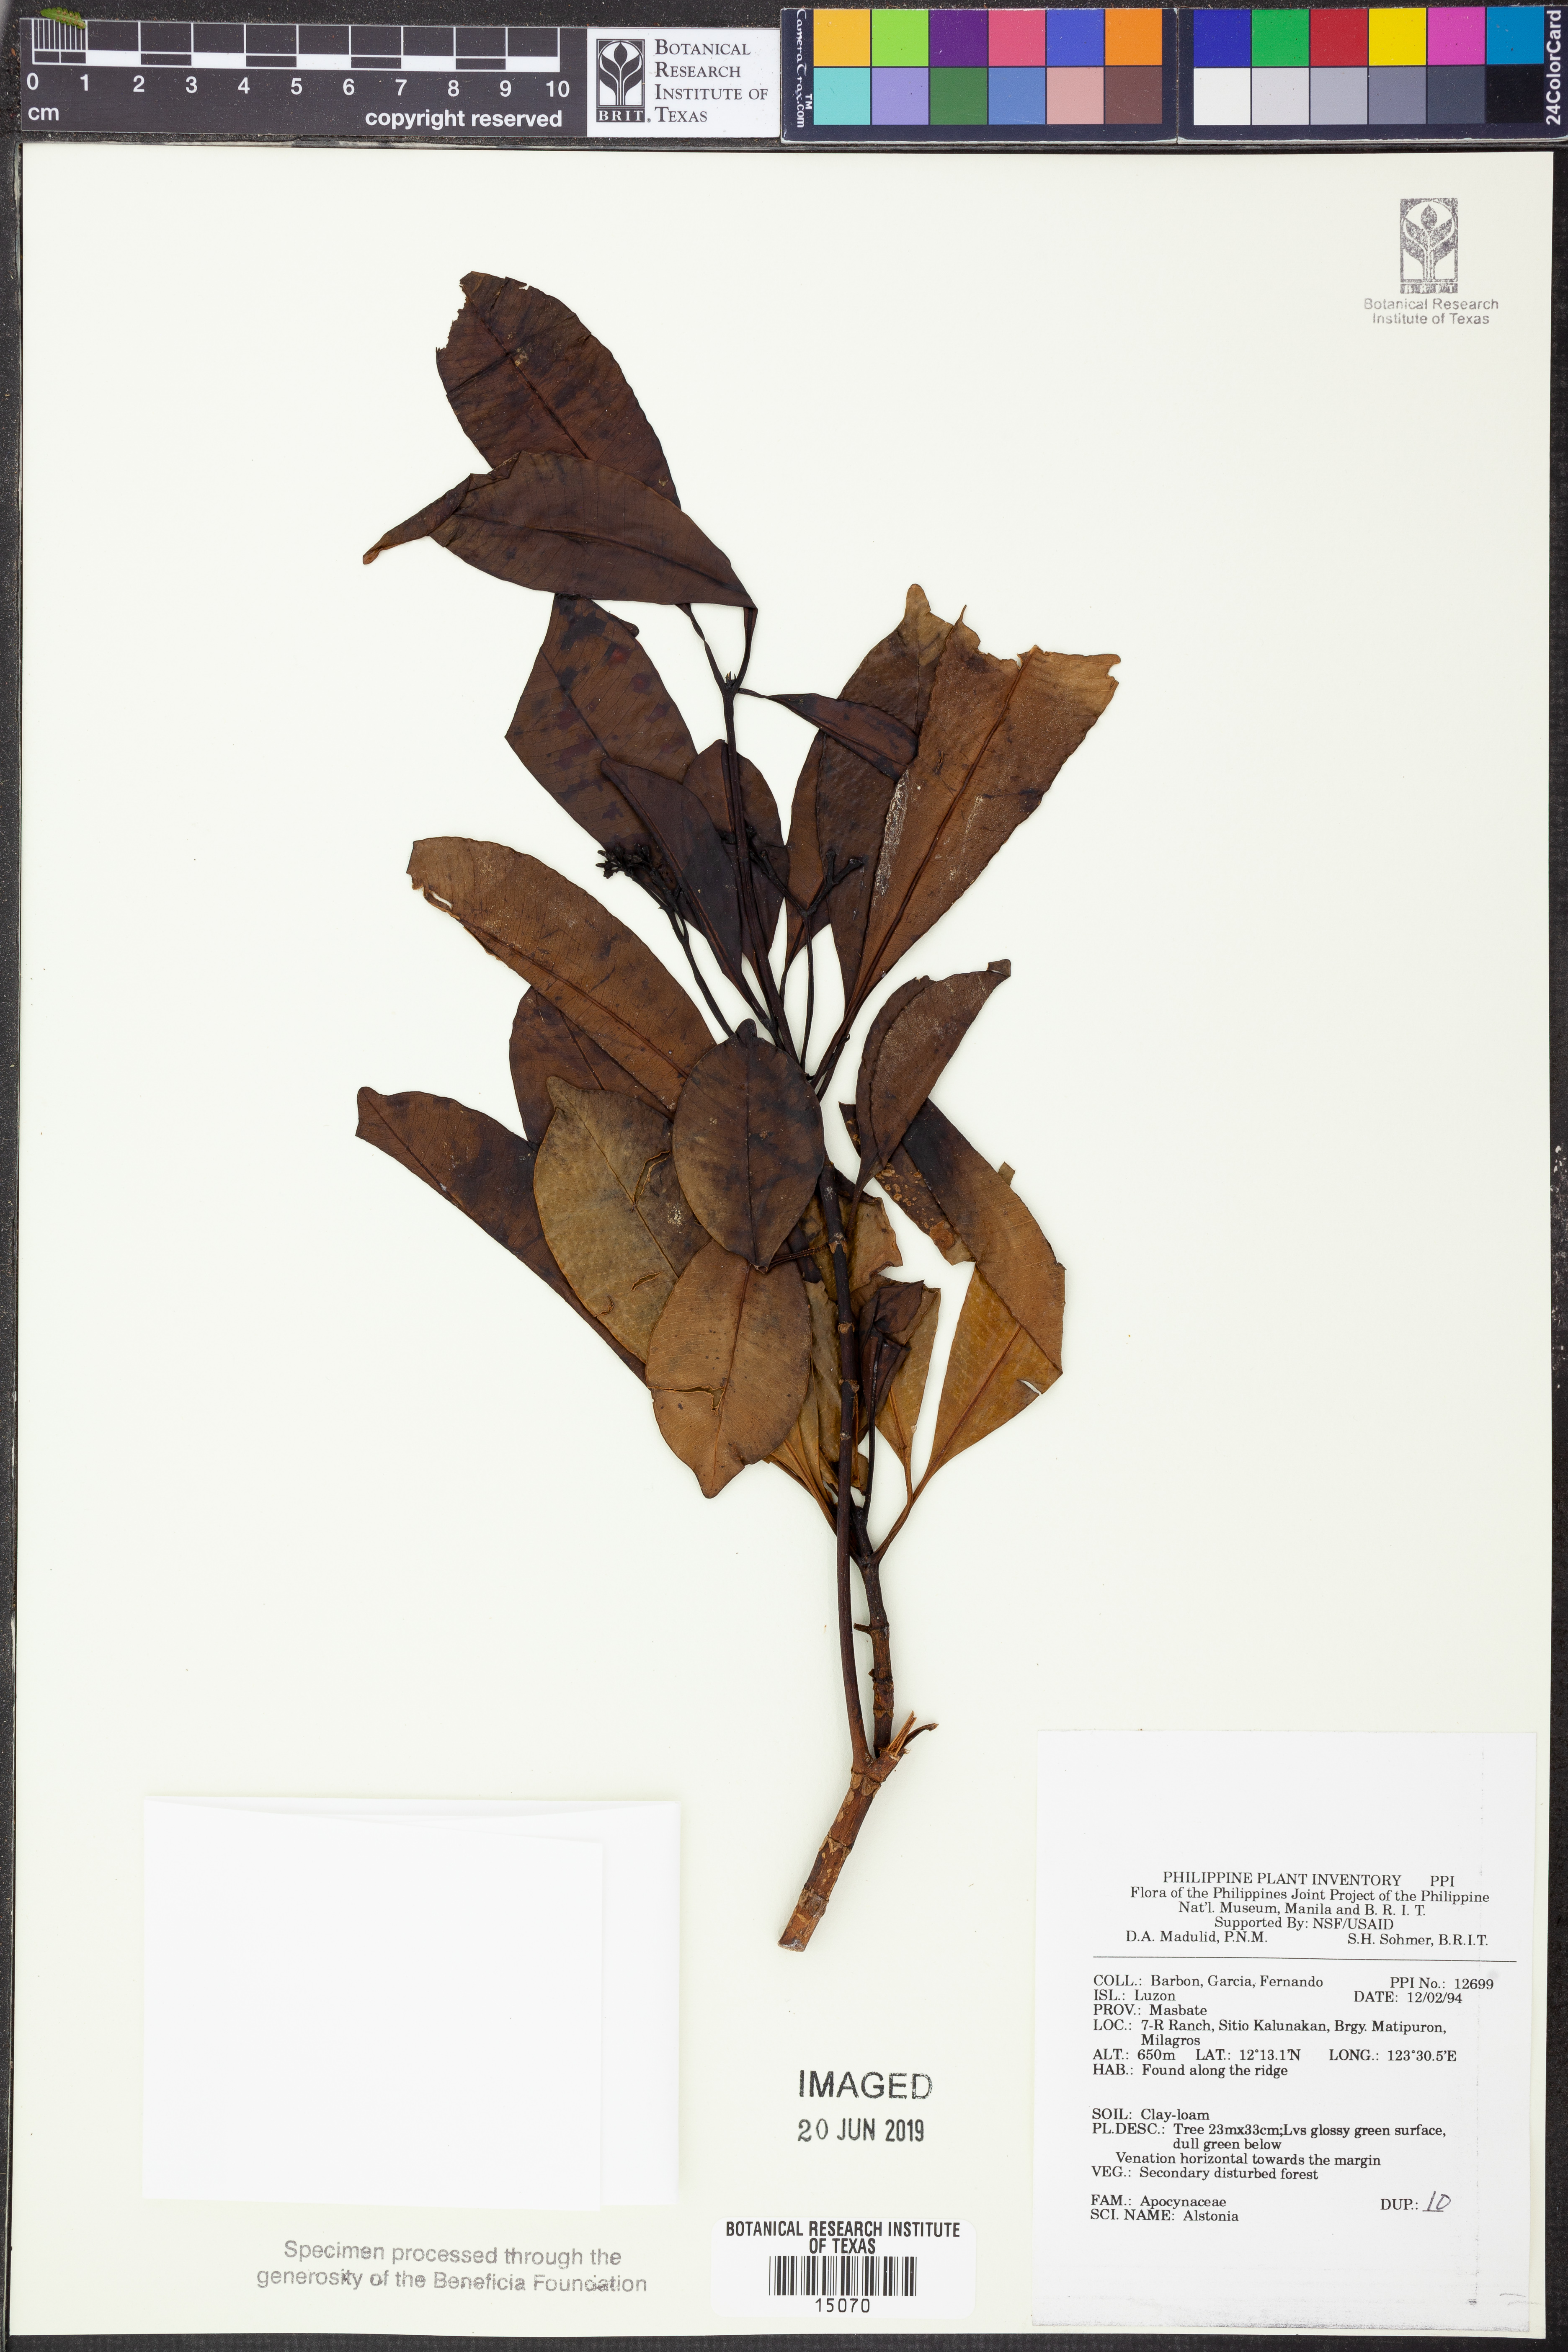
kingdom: Plantae
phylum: Tracheophyta
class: Magnoliopsida
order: Gentianales
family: Apocynaceae
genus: Alstonia
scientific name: Alstonia
